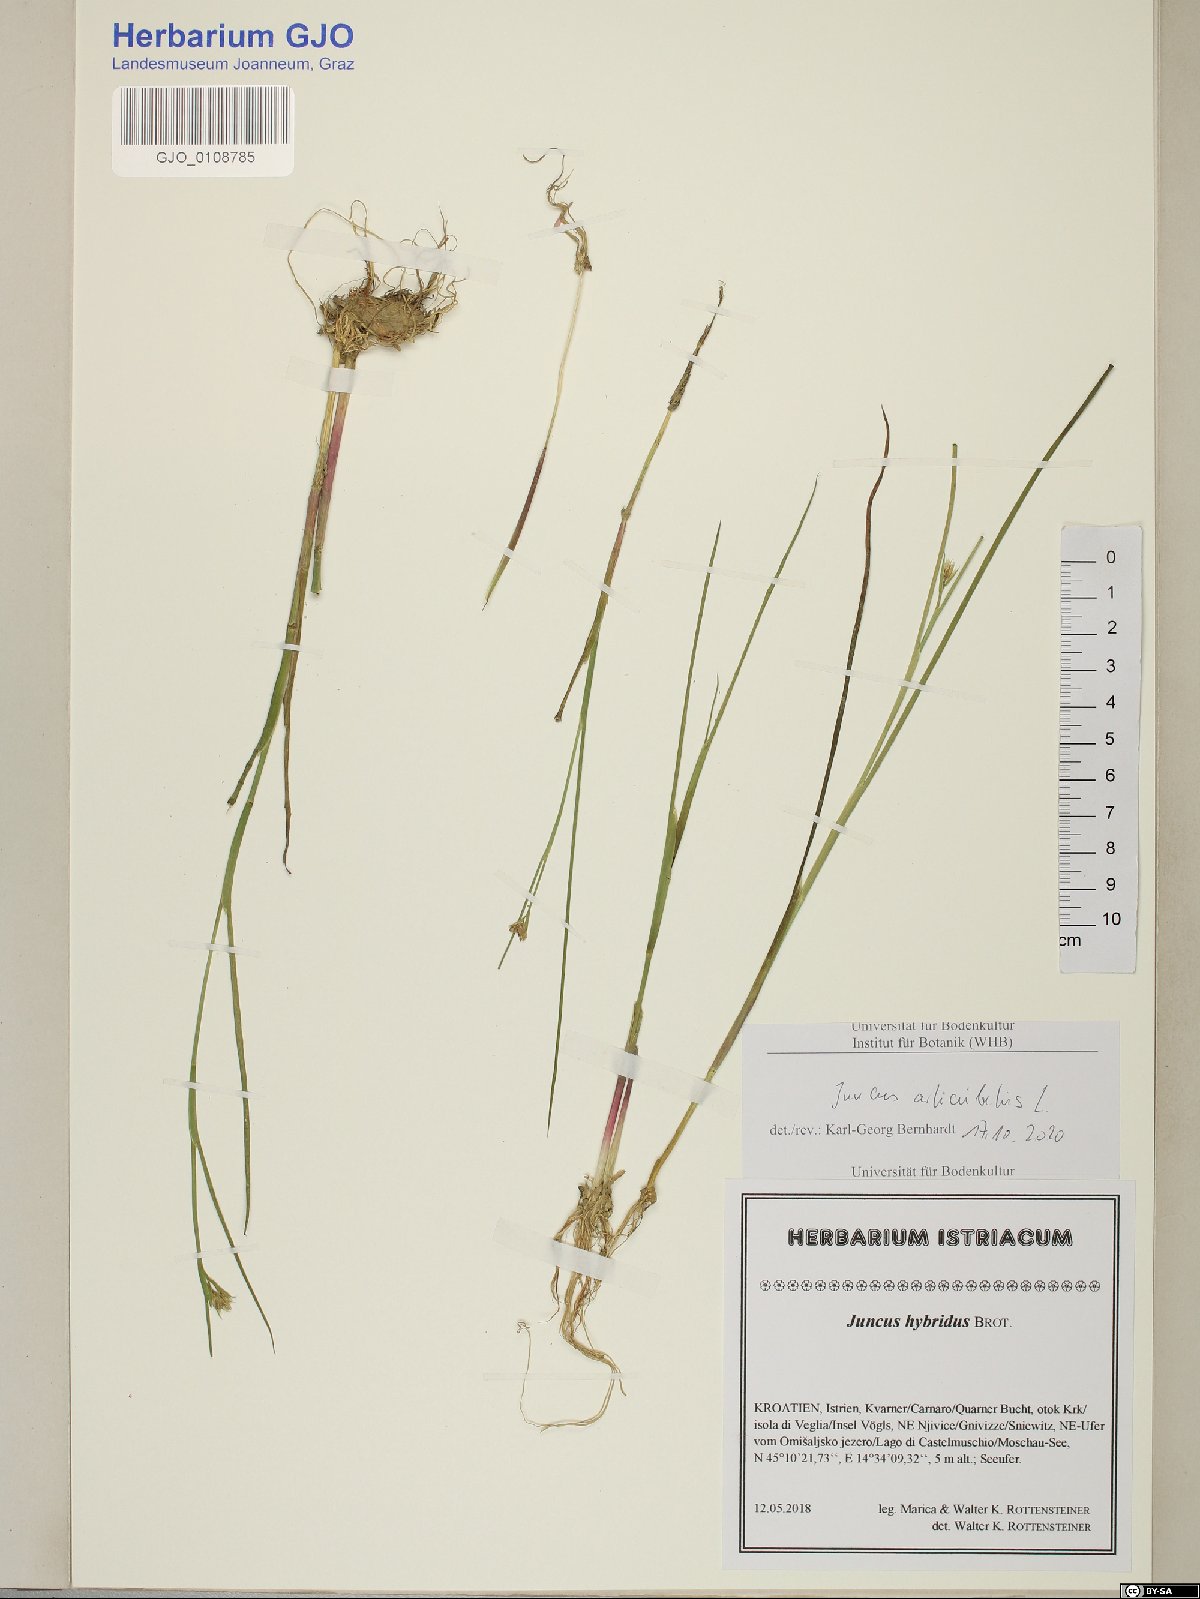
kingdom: Plantae
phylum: Tracheophyta
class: Liliopsida
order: Poales
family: Juncaceae
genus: Juncus
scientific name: Juncus articulatus
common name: Jointed rush
